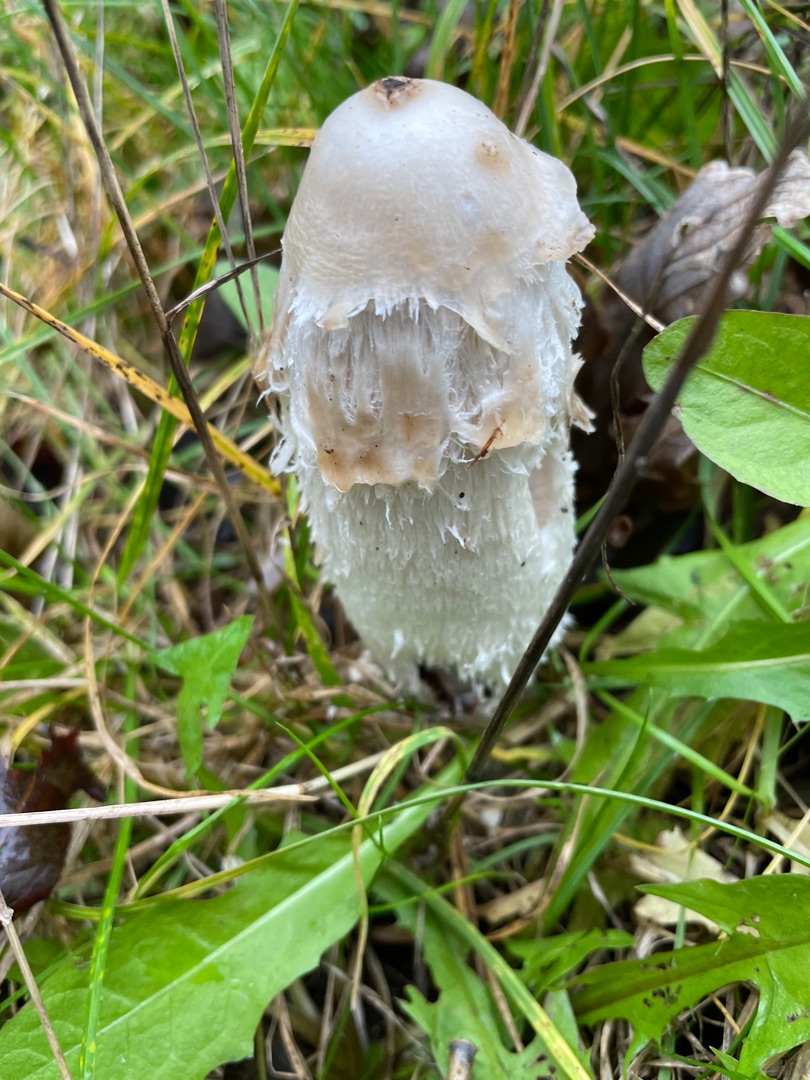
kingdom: Fungi
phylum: Basidiomycota
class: Agaricomycetes
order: Agaricales
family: Agaricaceae
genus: Coprinus
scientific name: Coprinus comatus
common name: Stor parykhat
